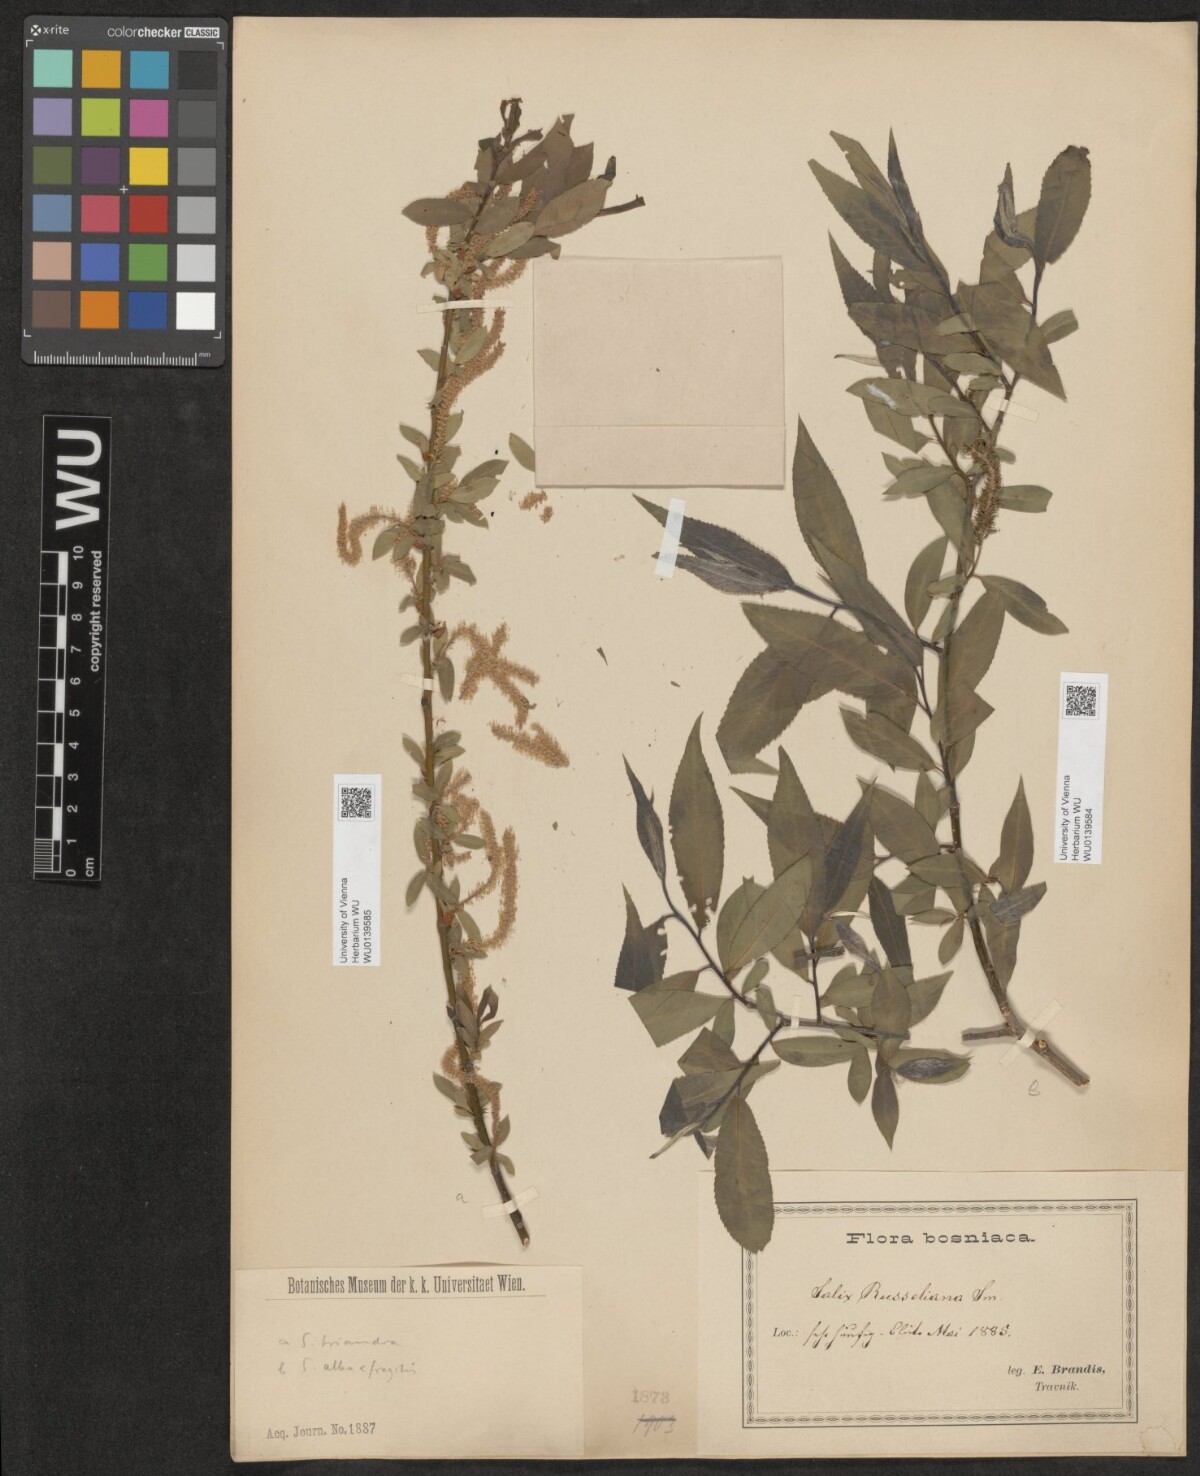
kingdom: Plantae
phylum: Tracheophyta
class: Magnoliopsida
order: Malpighiales
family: Salicaceae
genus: Salix
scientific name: Salix rubens
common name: Hybrid crack willow
